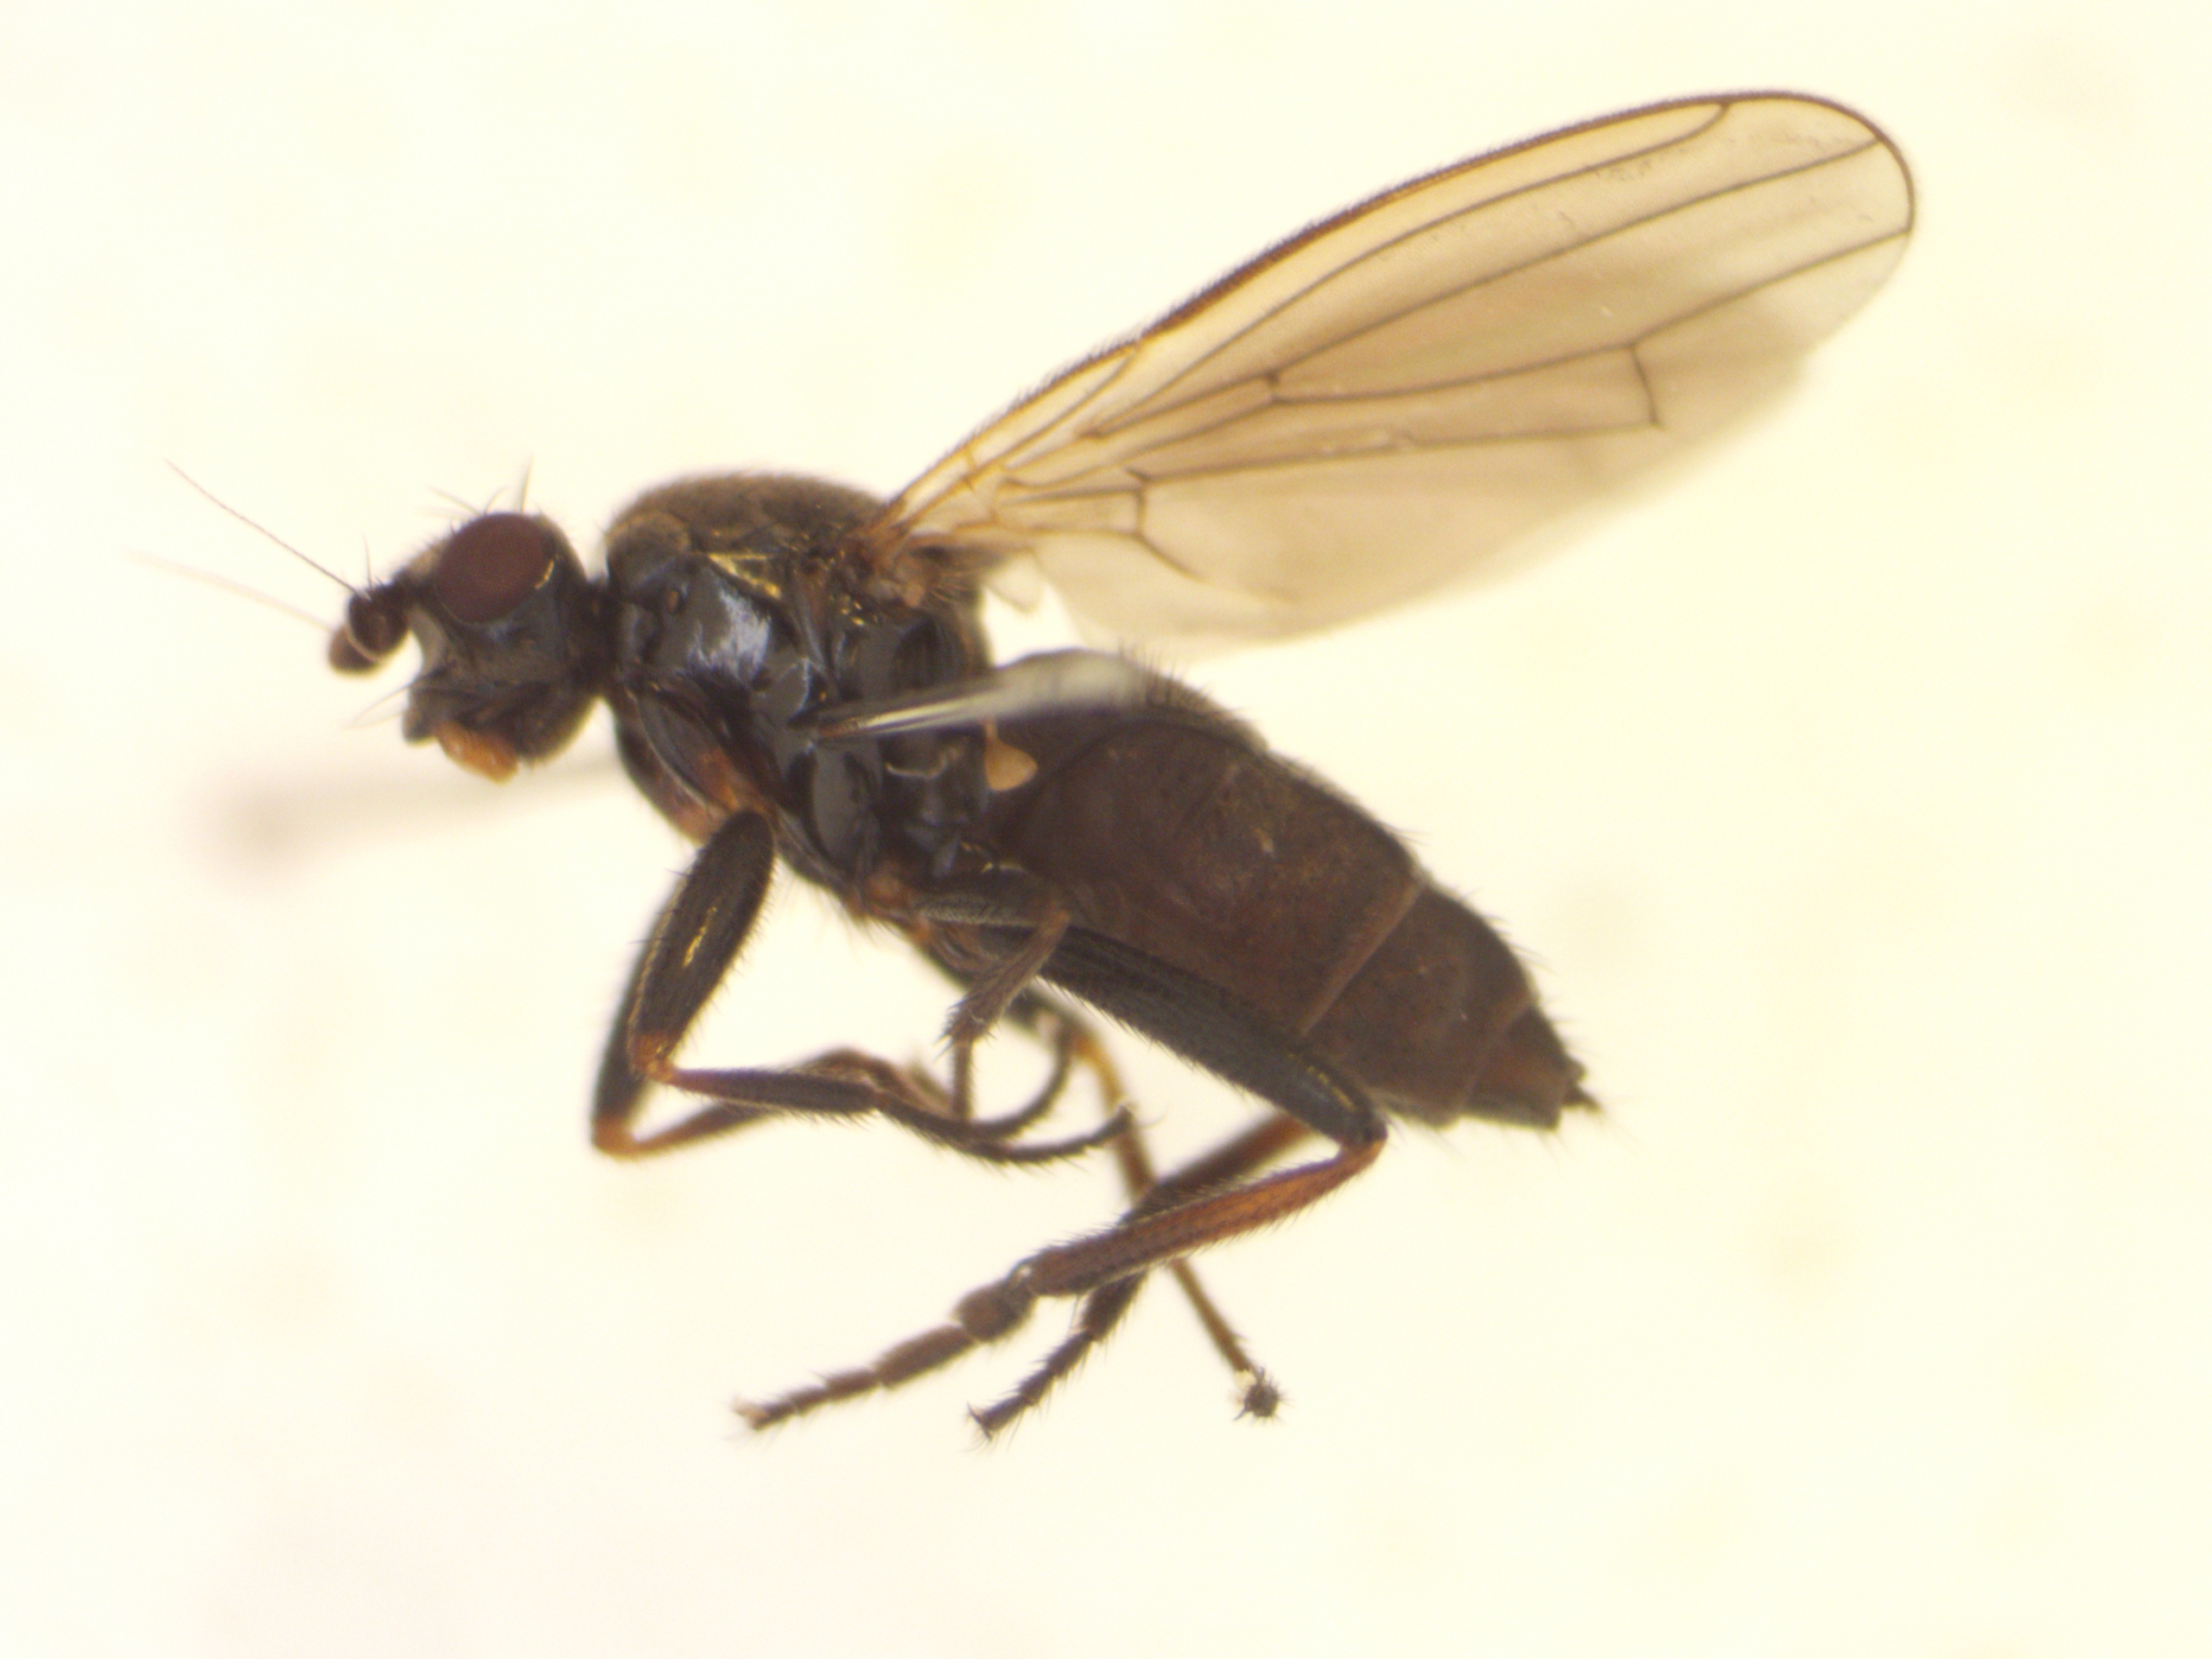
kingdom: Animalia
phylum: Arthropoda
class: Insecta
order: Diptera
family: Sphaeroceridae
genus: Copromyza
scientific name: Copromyza stercoraria
